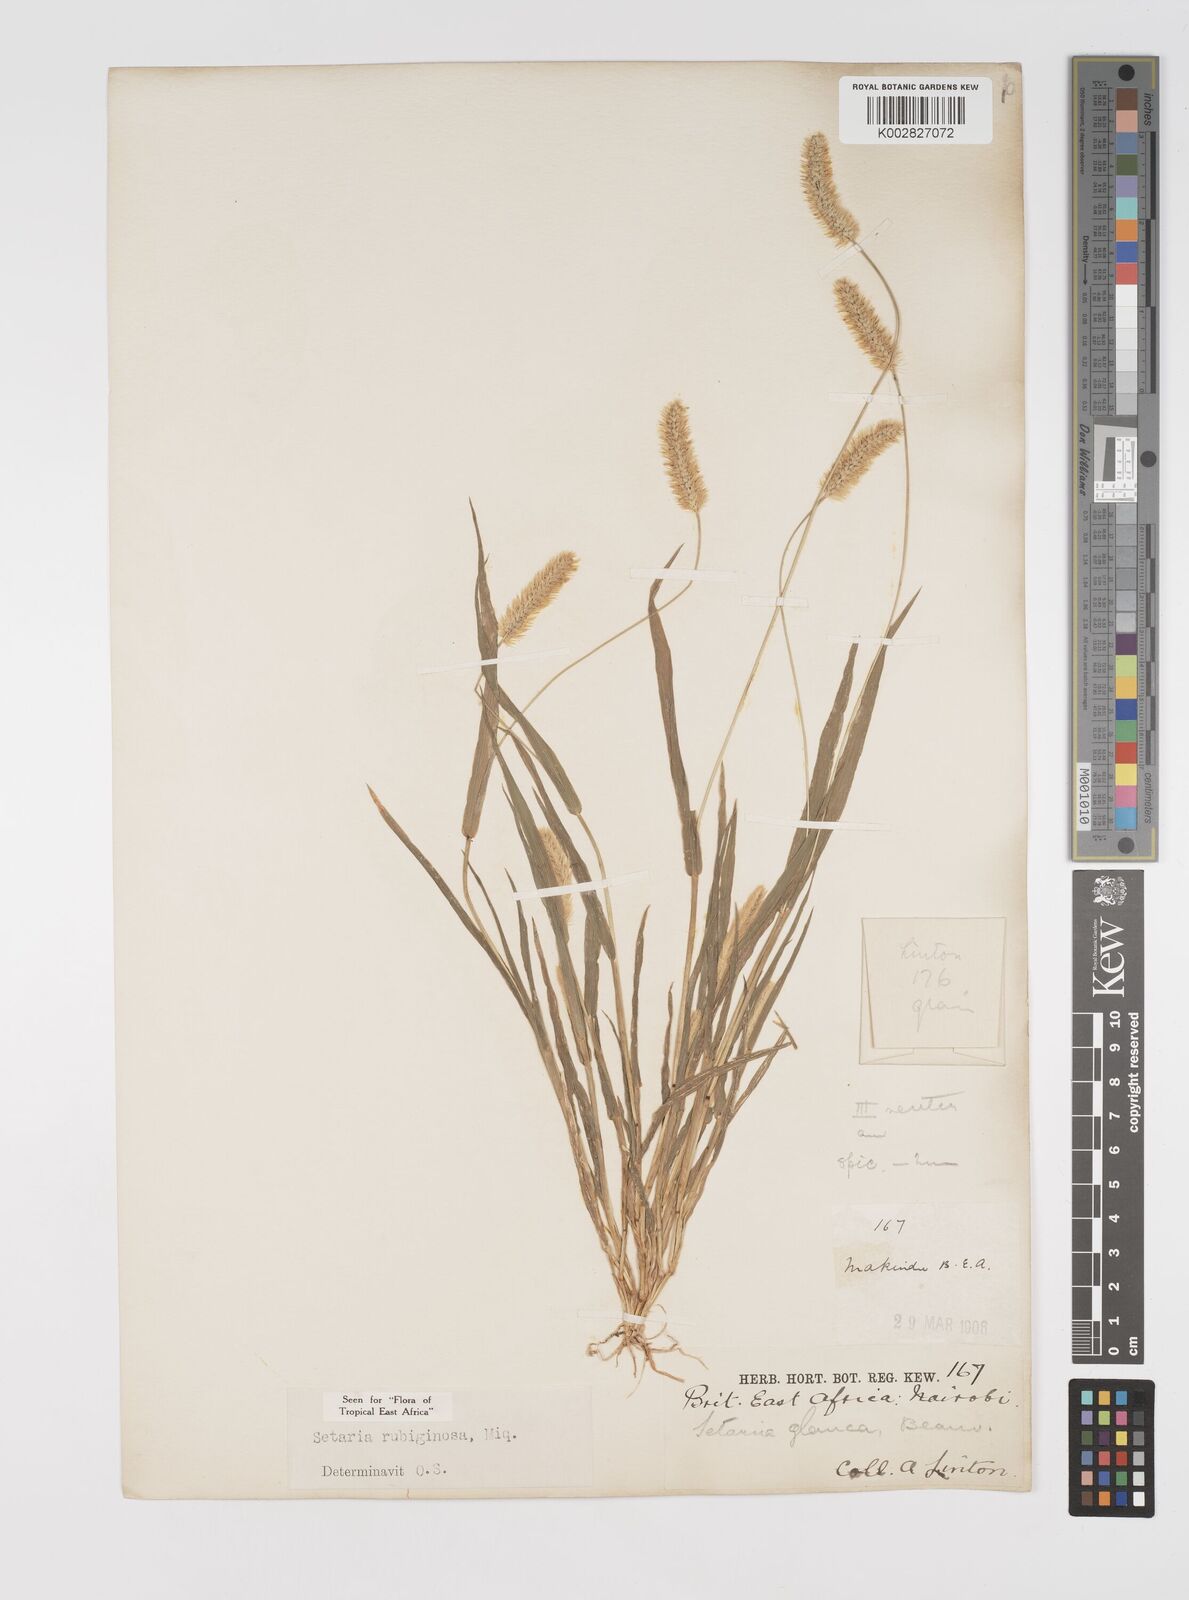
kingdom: Plantae
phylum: Tracheophyta
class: Liliopsida
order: Poales
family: Poaceae
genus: Setaria
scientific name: Setaria pumila
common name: Yellow bristle-grass
